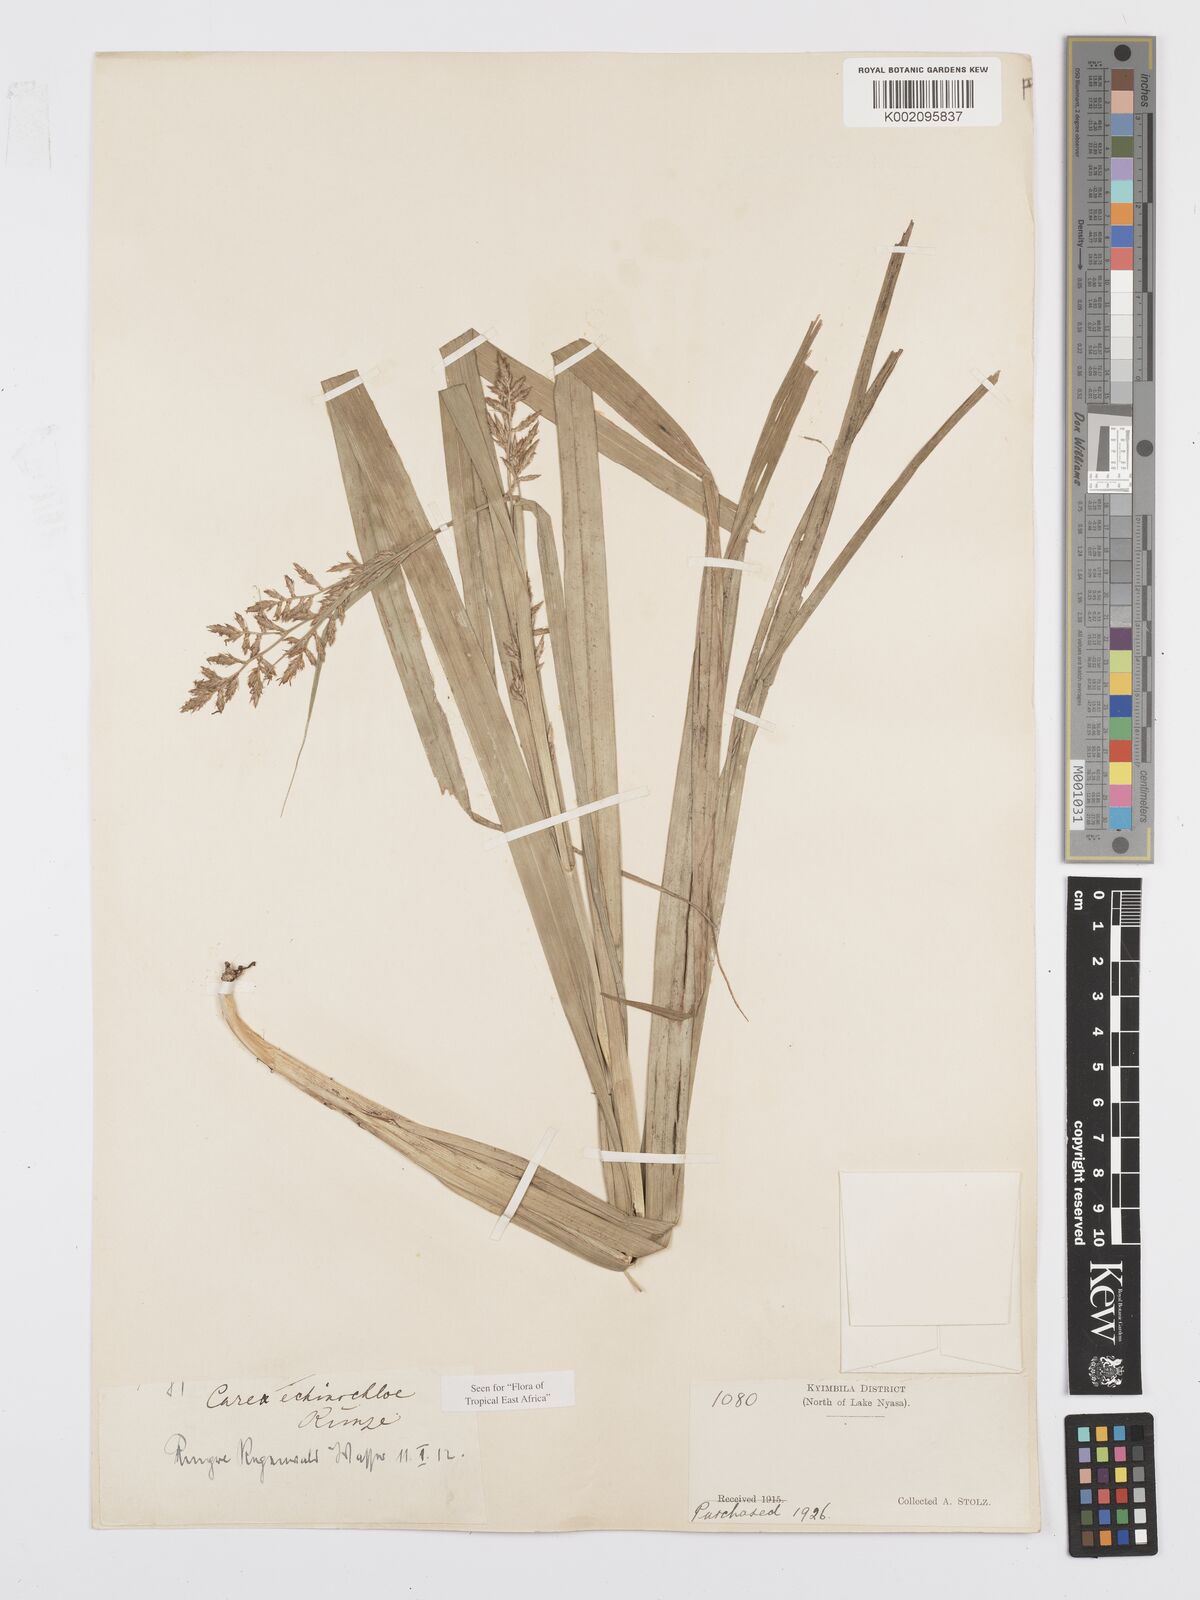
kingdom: Plantae
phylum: Tracheophyta
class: Liliopsida
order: Poales
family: Cyperaceae
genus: Carex
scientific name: Carex echinochloe
